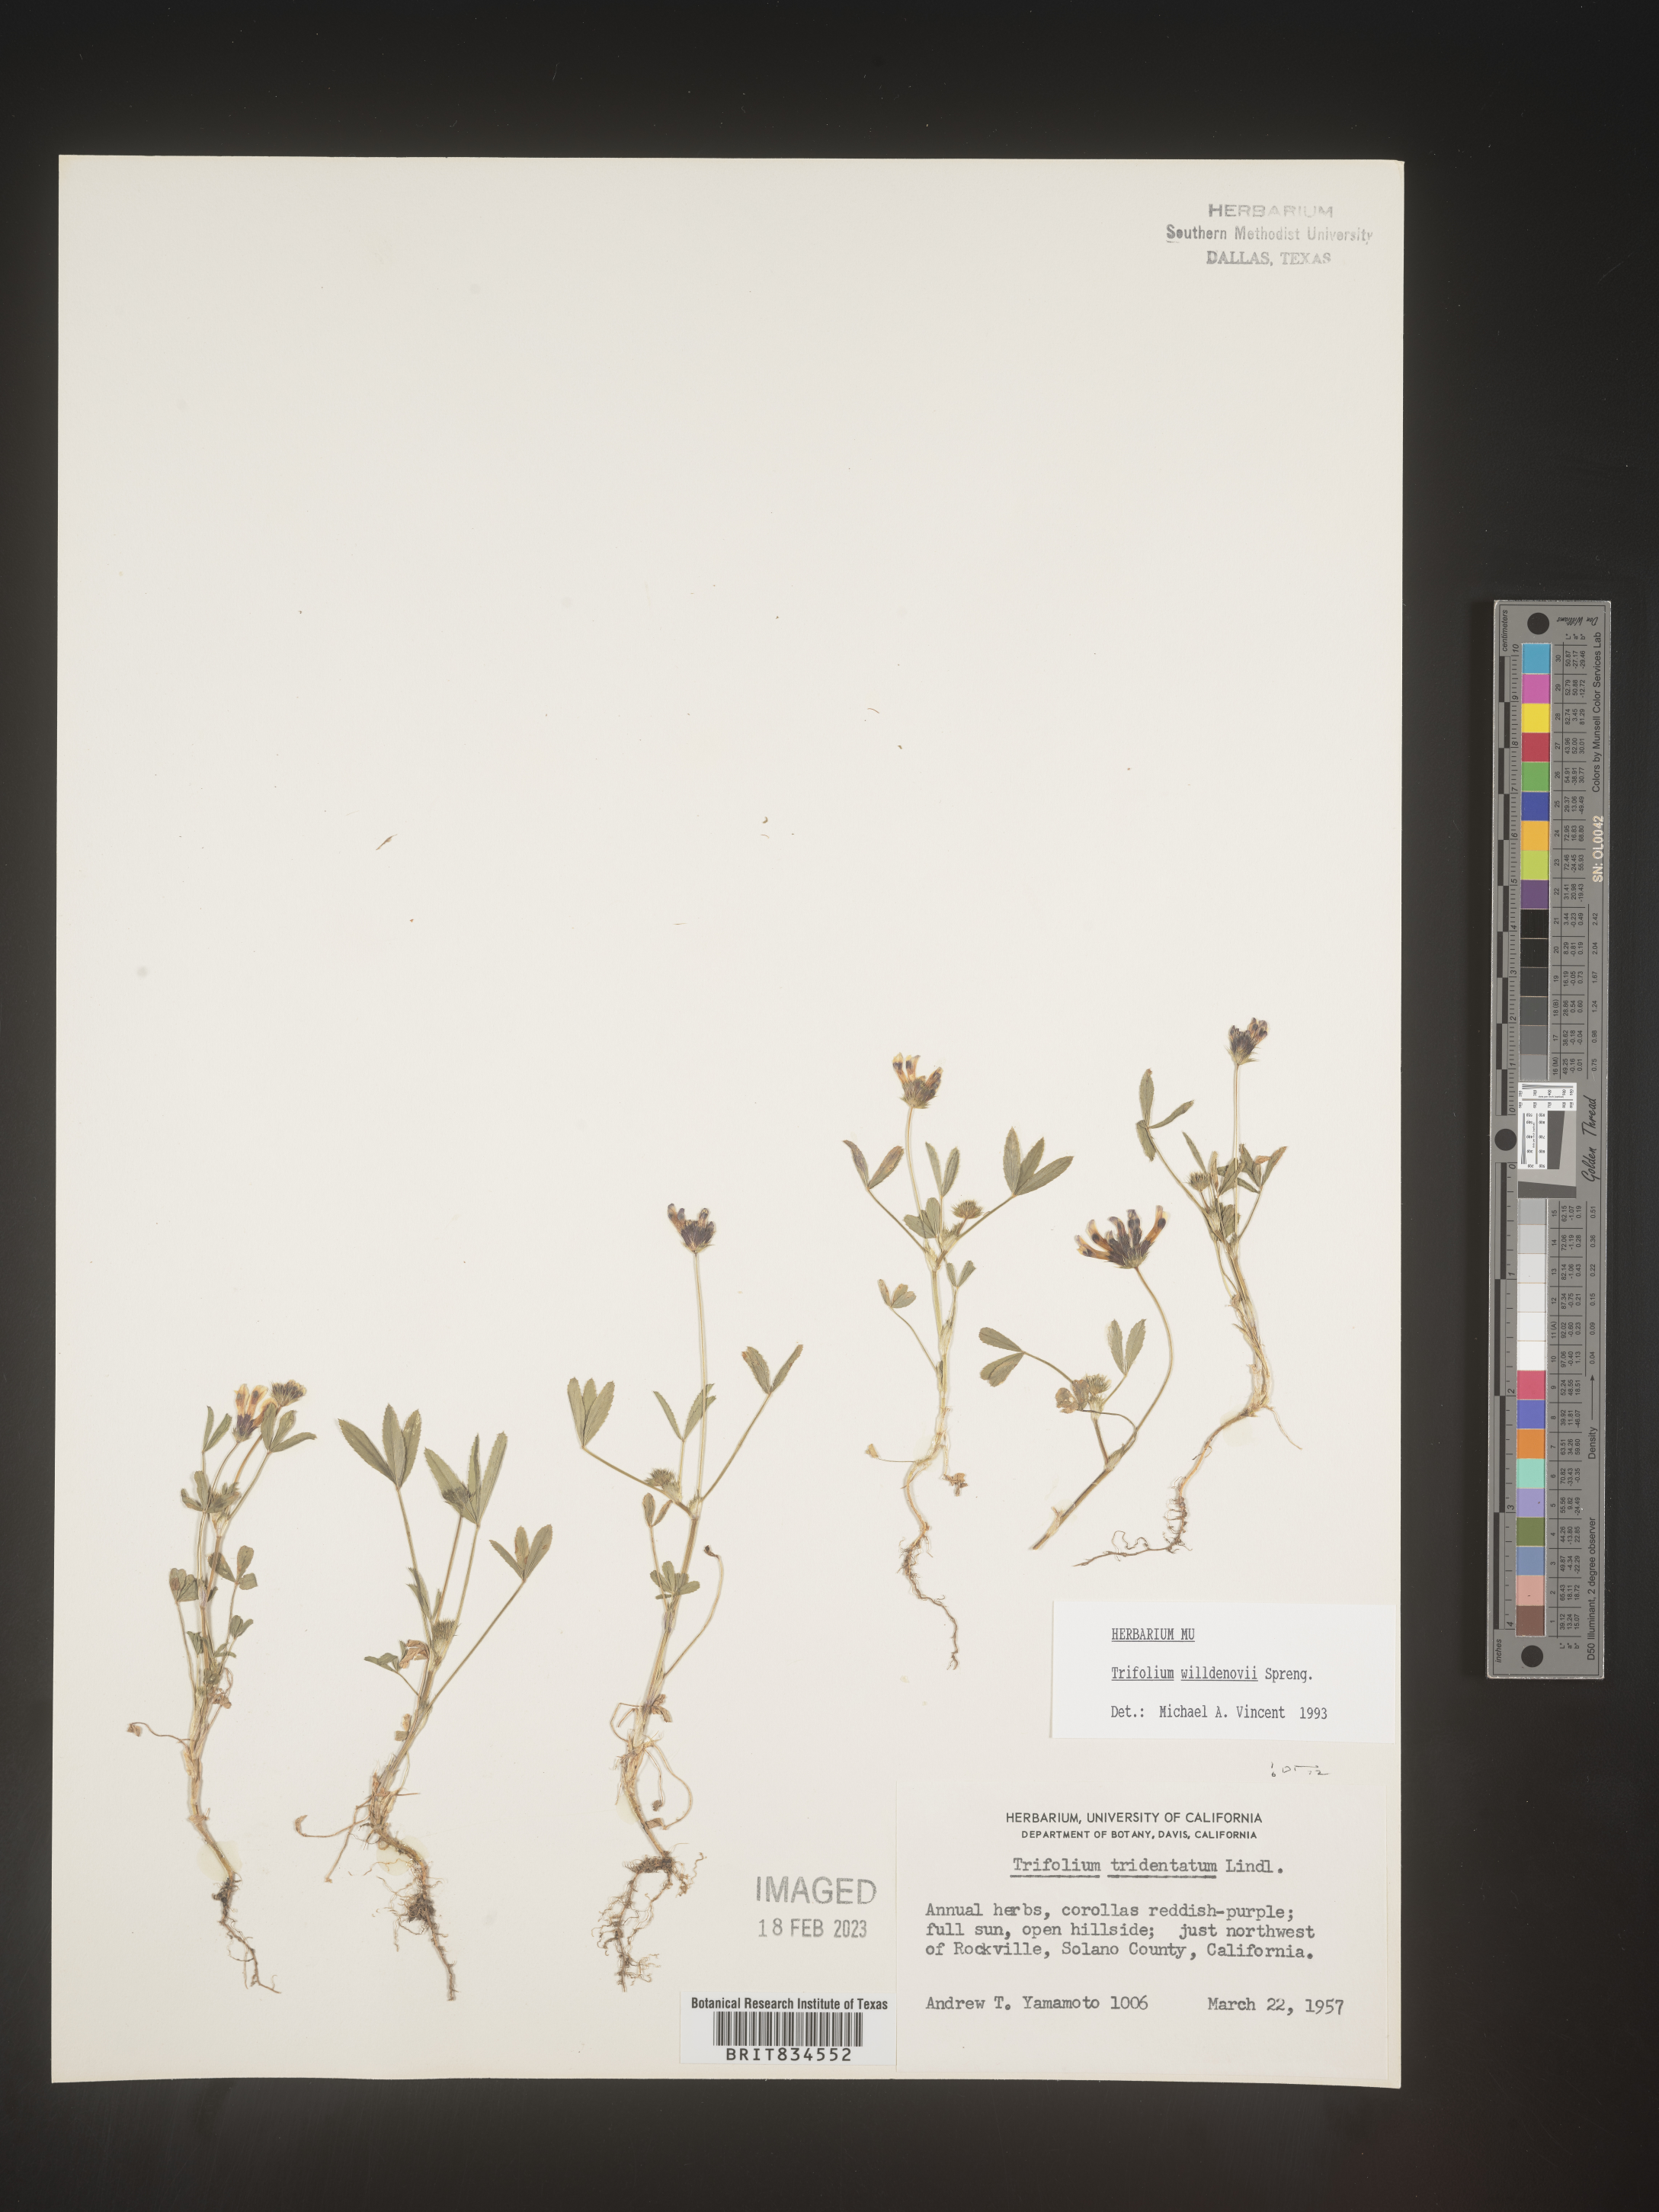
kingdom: Plantae
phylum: Tracheophyta
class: Magnoliopsida
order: Fabales
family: Fabaceae
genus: Trifolium
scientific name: Trifolium
